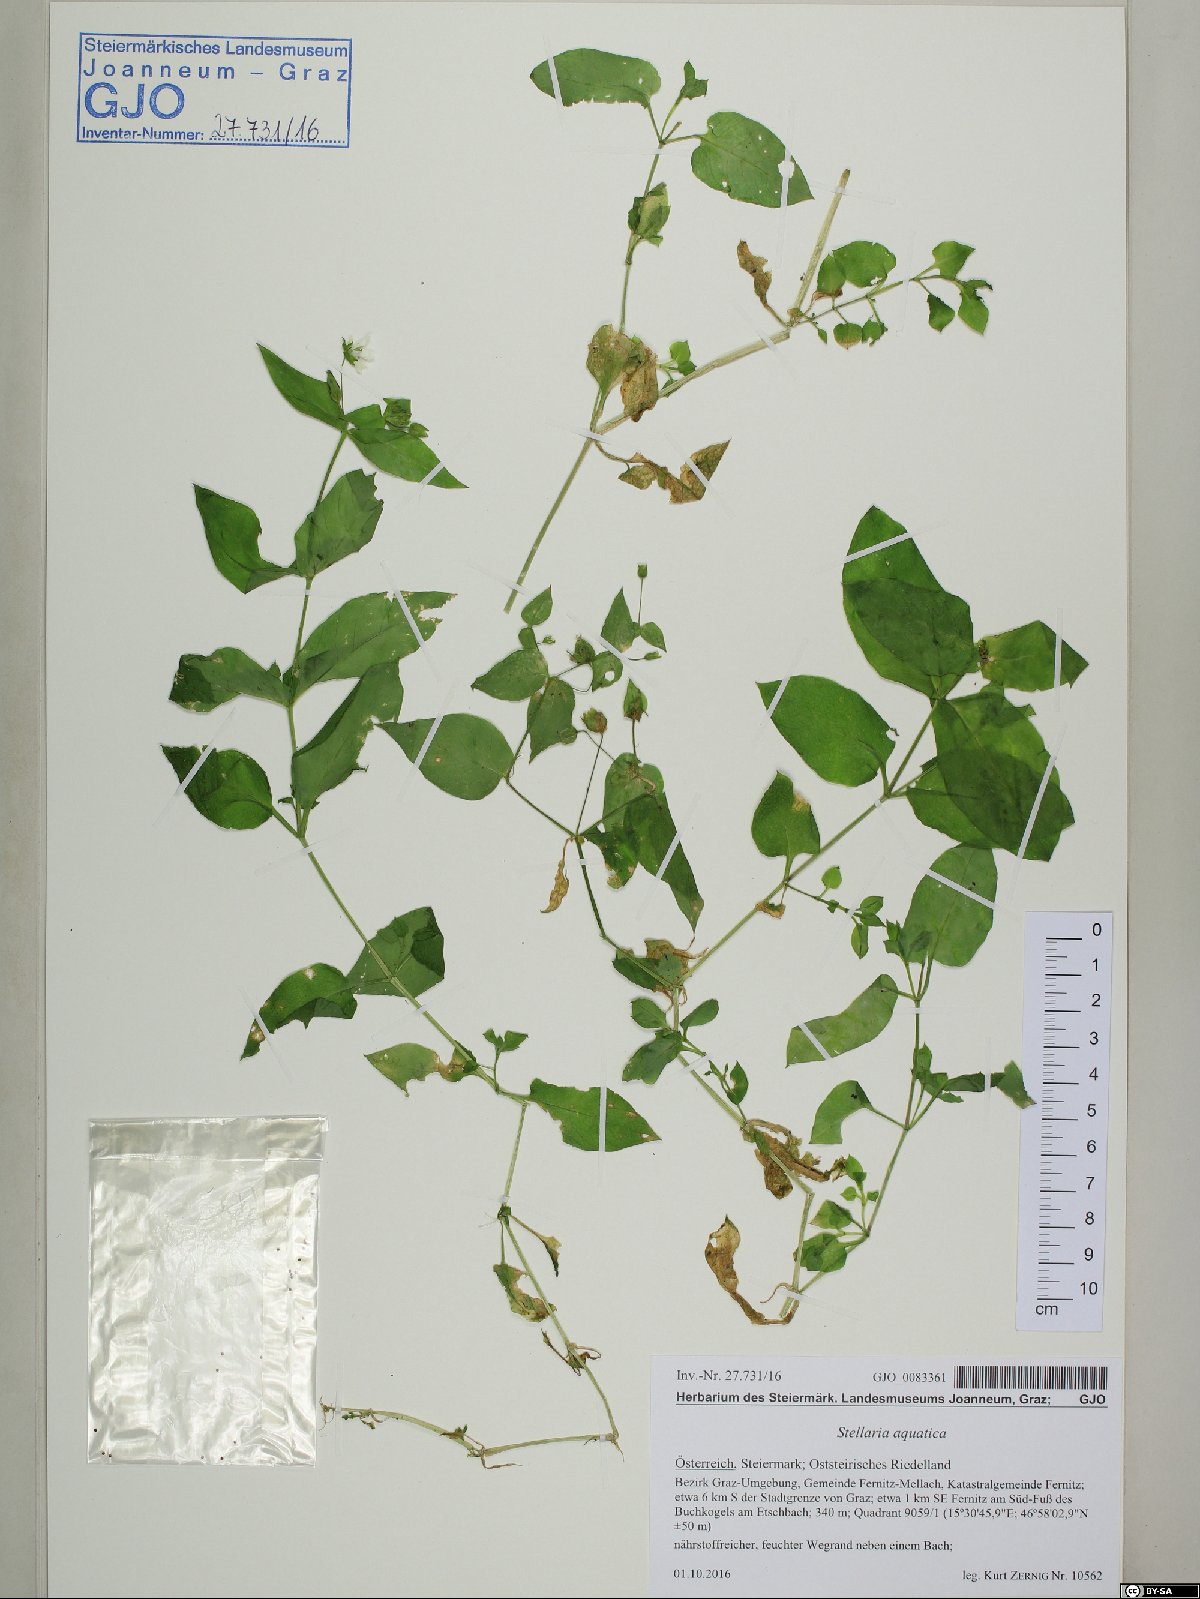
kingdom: Plantae
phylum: Tracheophyta
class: Magnoliopsida
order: Caryophyllales
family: Caryophyllaceae
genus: Stellaria
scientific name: Stellaria aquatica
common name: Water chickweed
